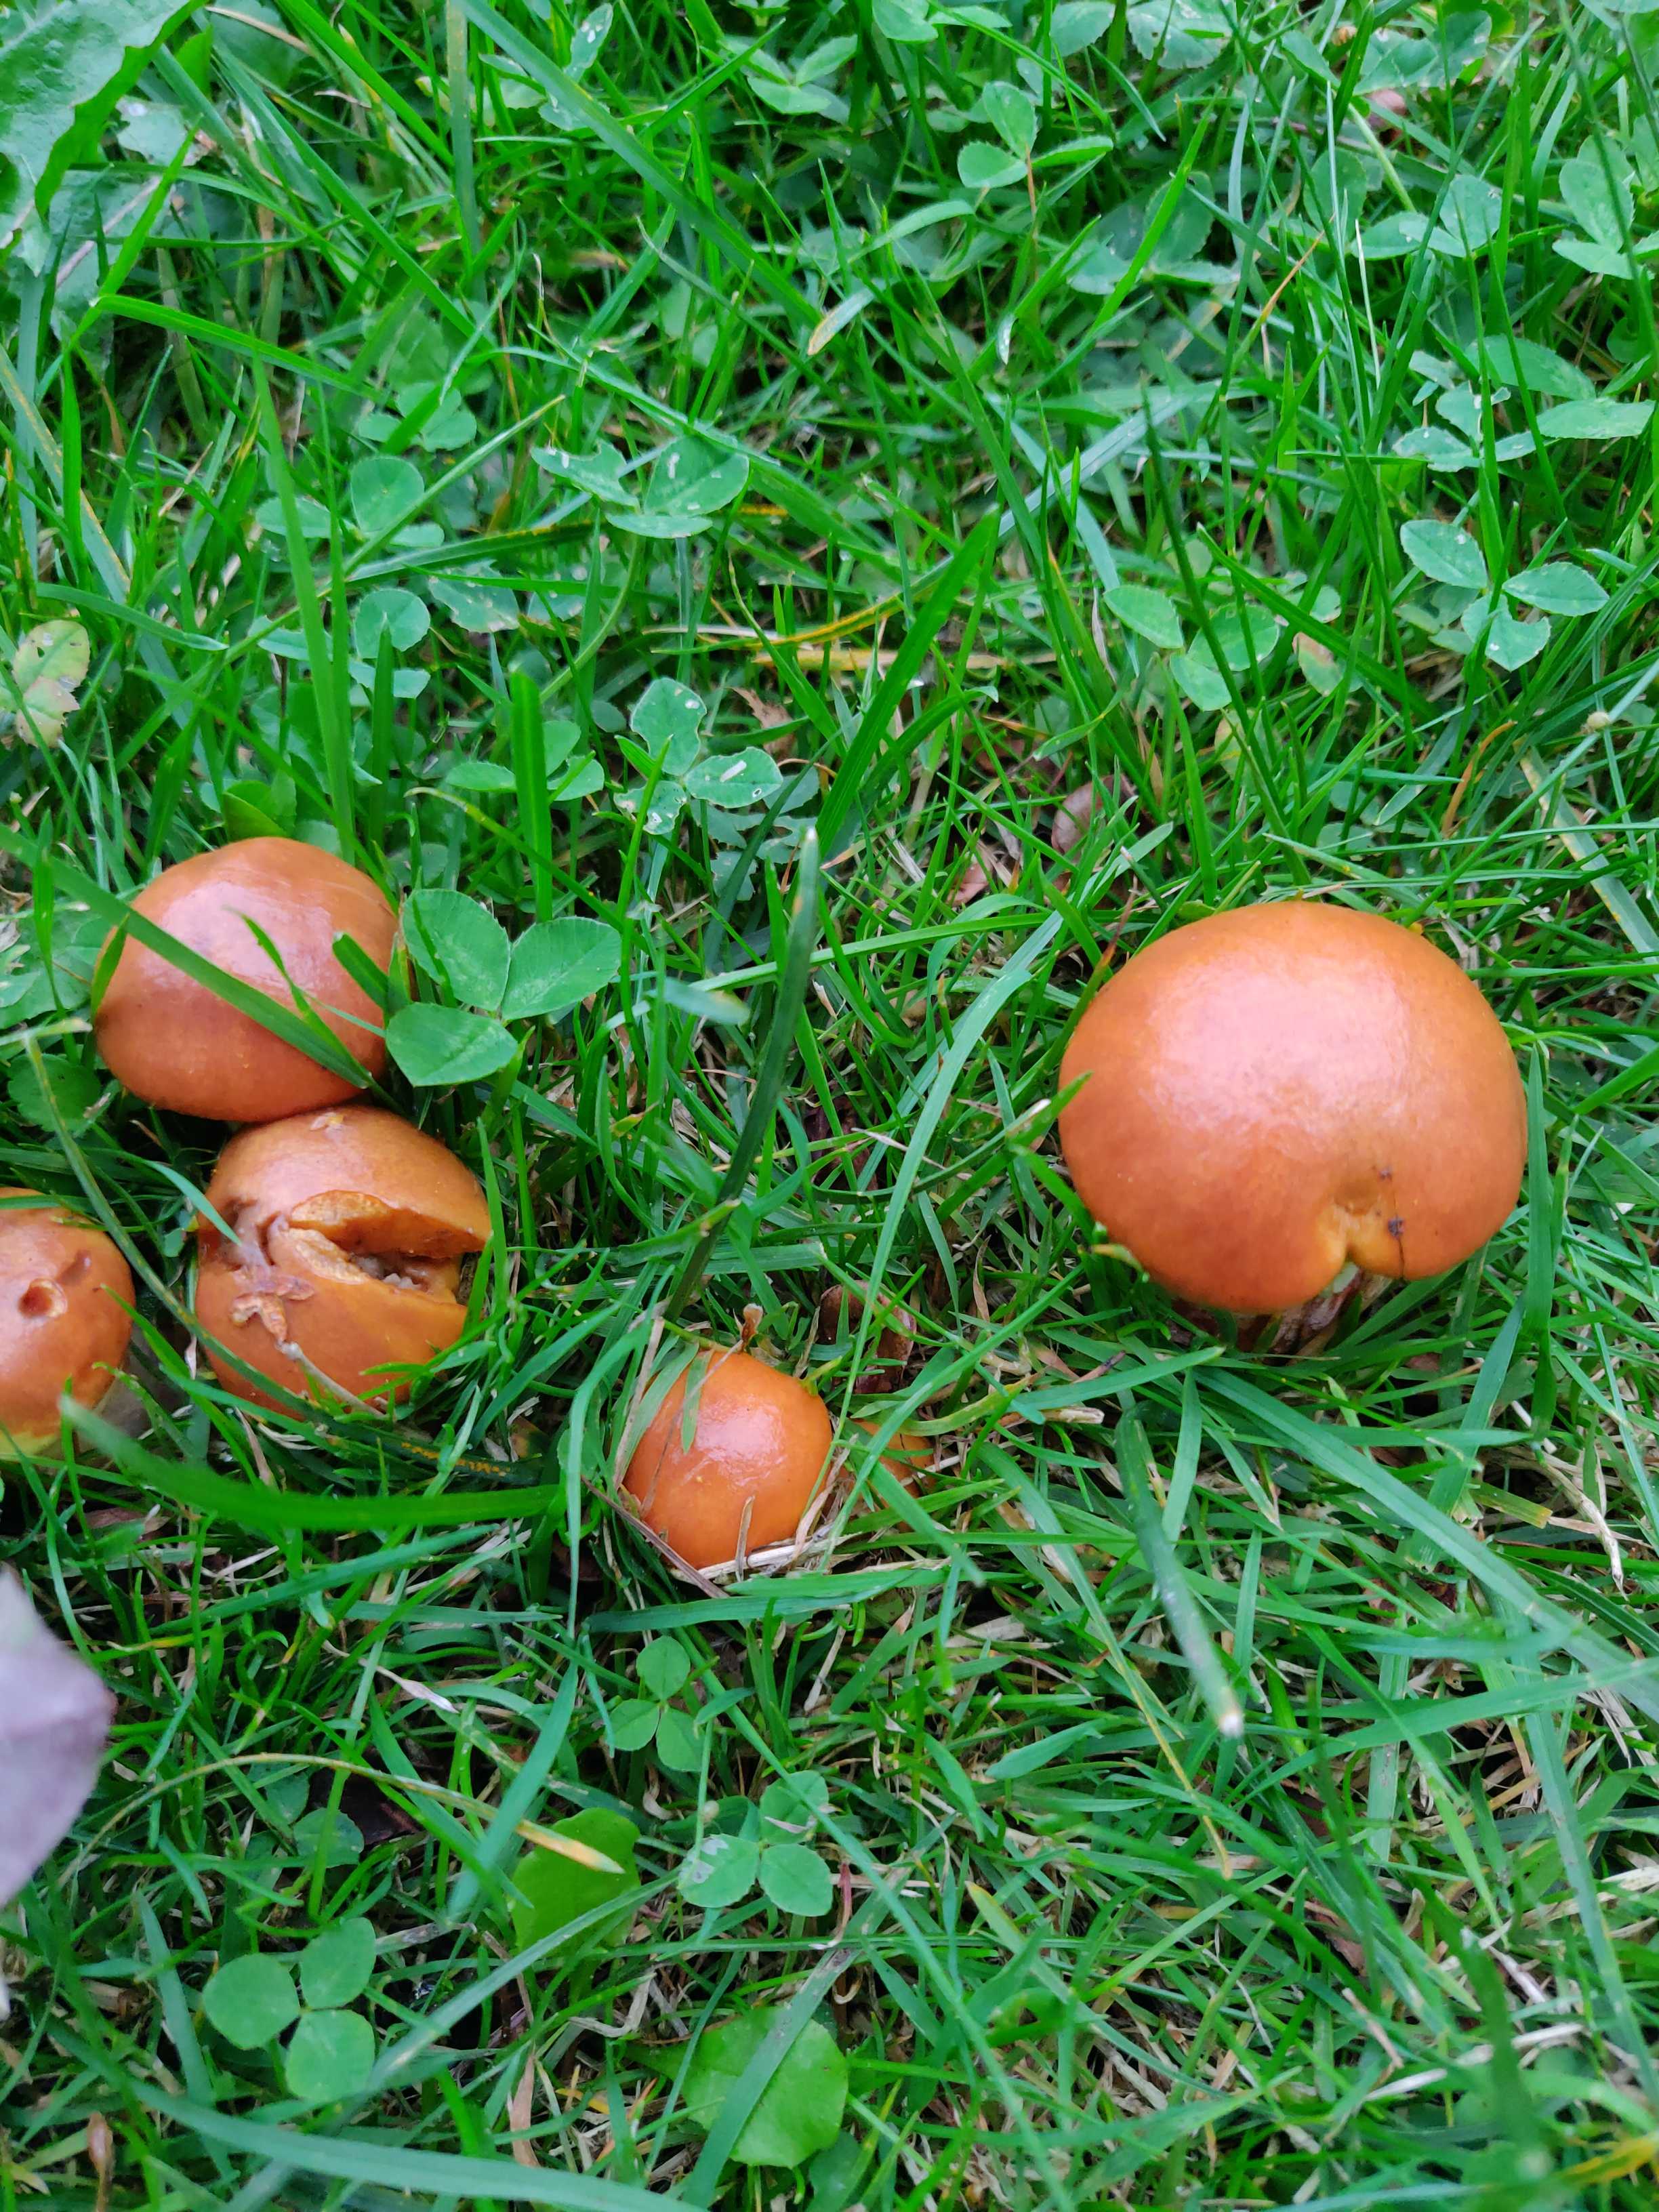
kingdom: Fungi
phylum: Basidiomycota
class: Agaricomycetes
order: Boletales
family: Suillaceae
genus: Suillus
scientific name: Suillus grevillei
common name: lærke-slimrørhat
